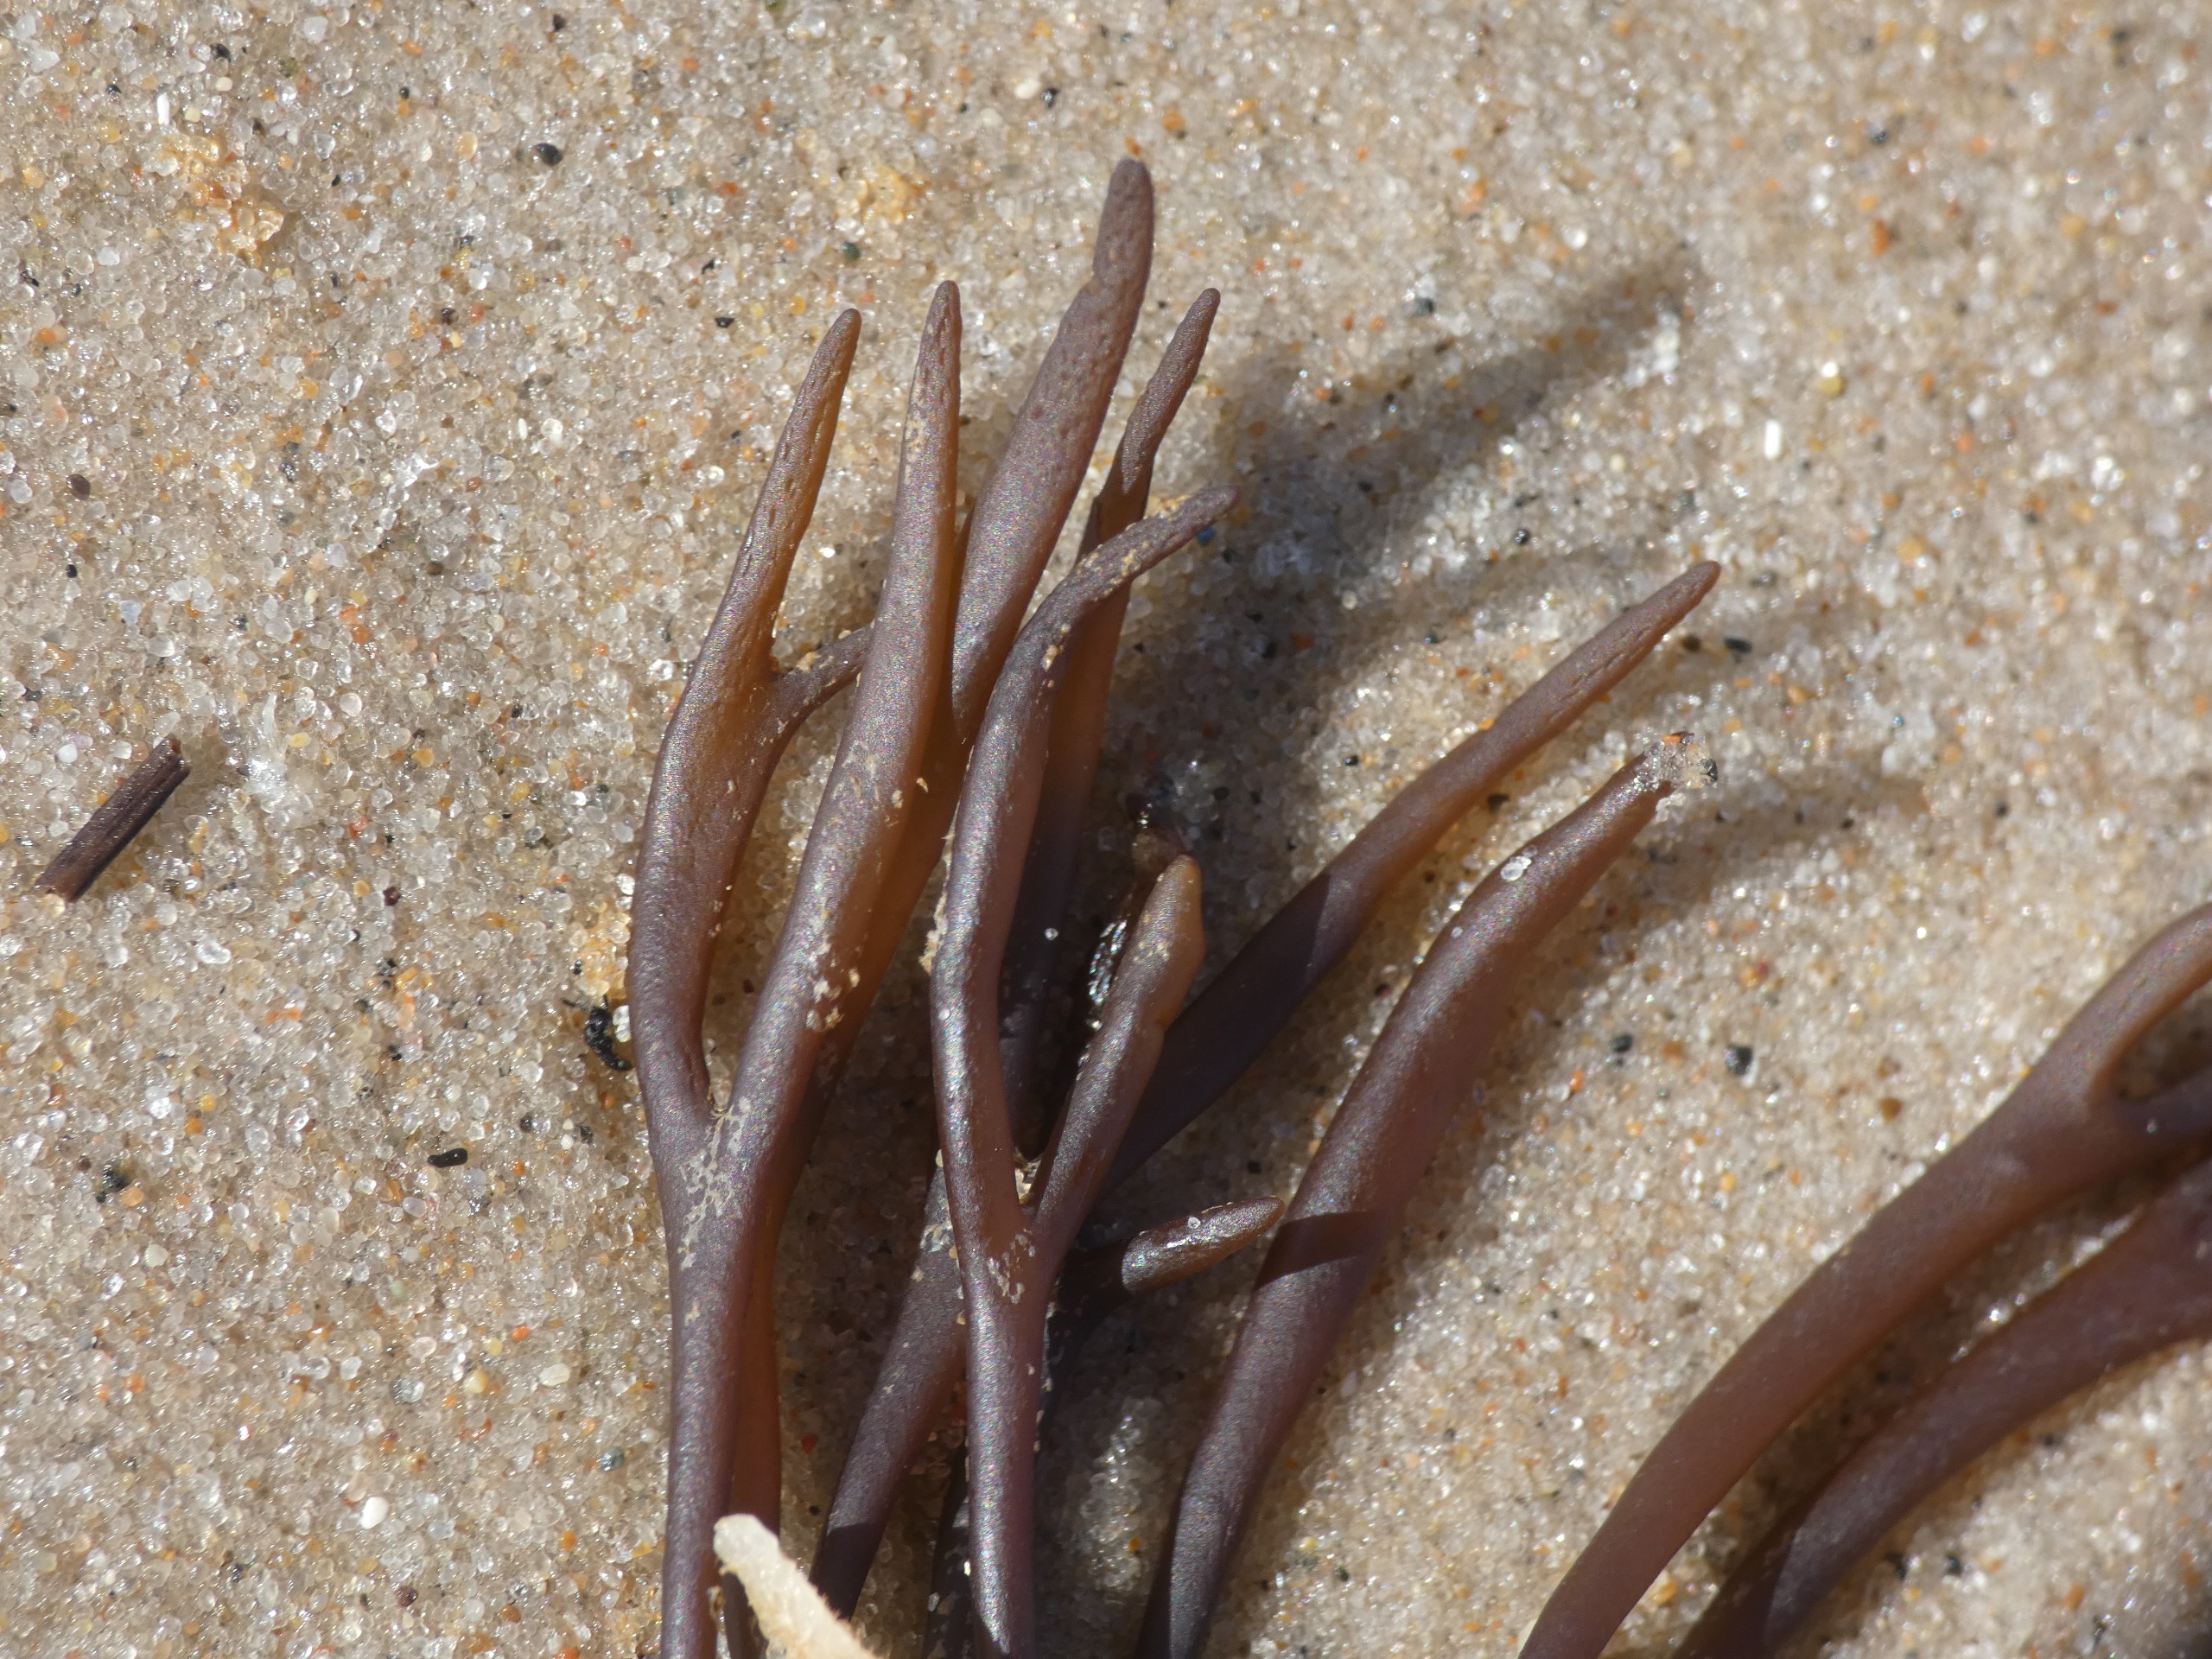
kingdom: Plantae
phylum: Rhodophyta
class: Florideophyceae
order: Gigartinales
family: Furcellariaceae
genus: Furcellaria
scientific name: Furcellaria lumbricalis
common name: Gaffeltang
